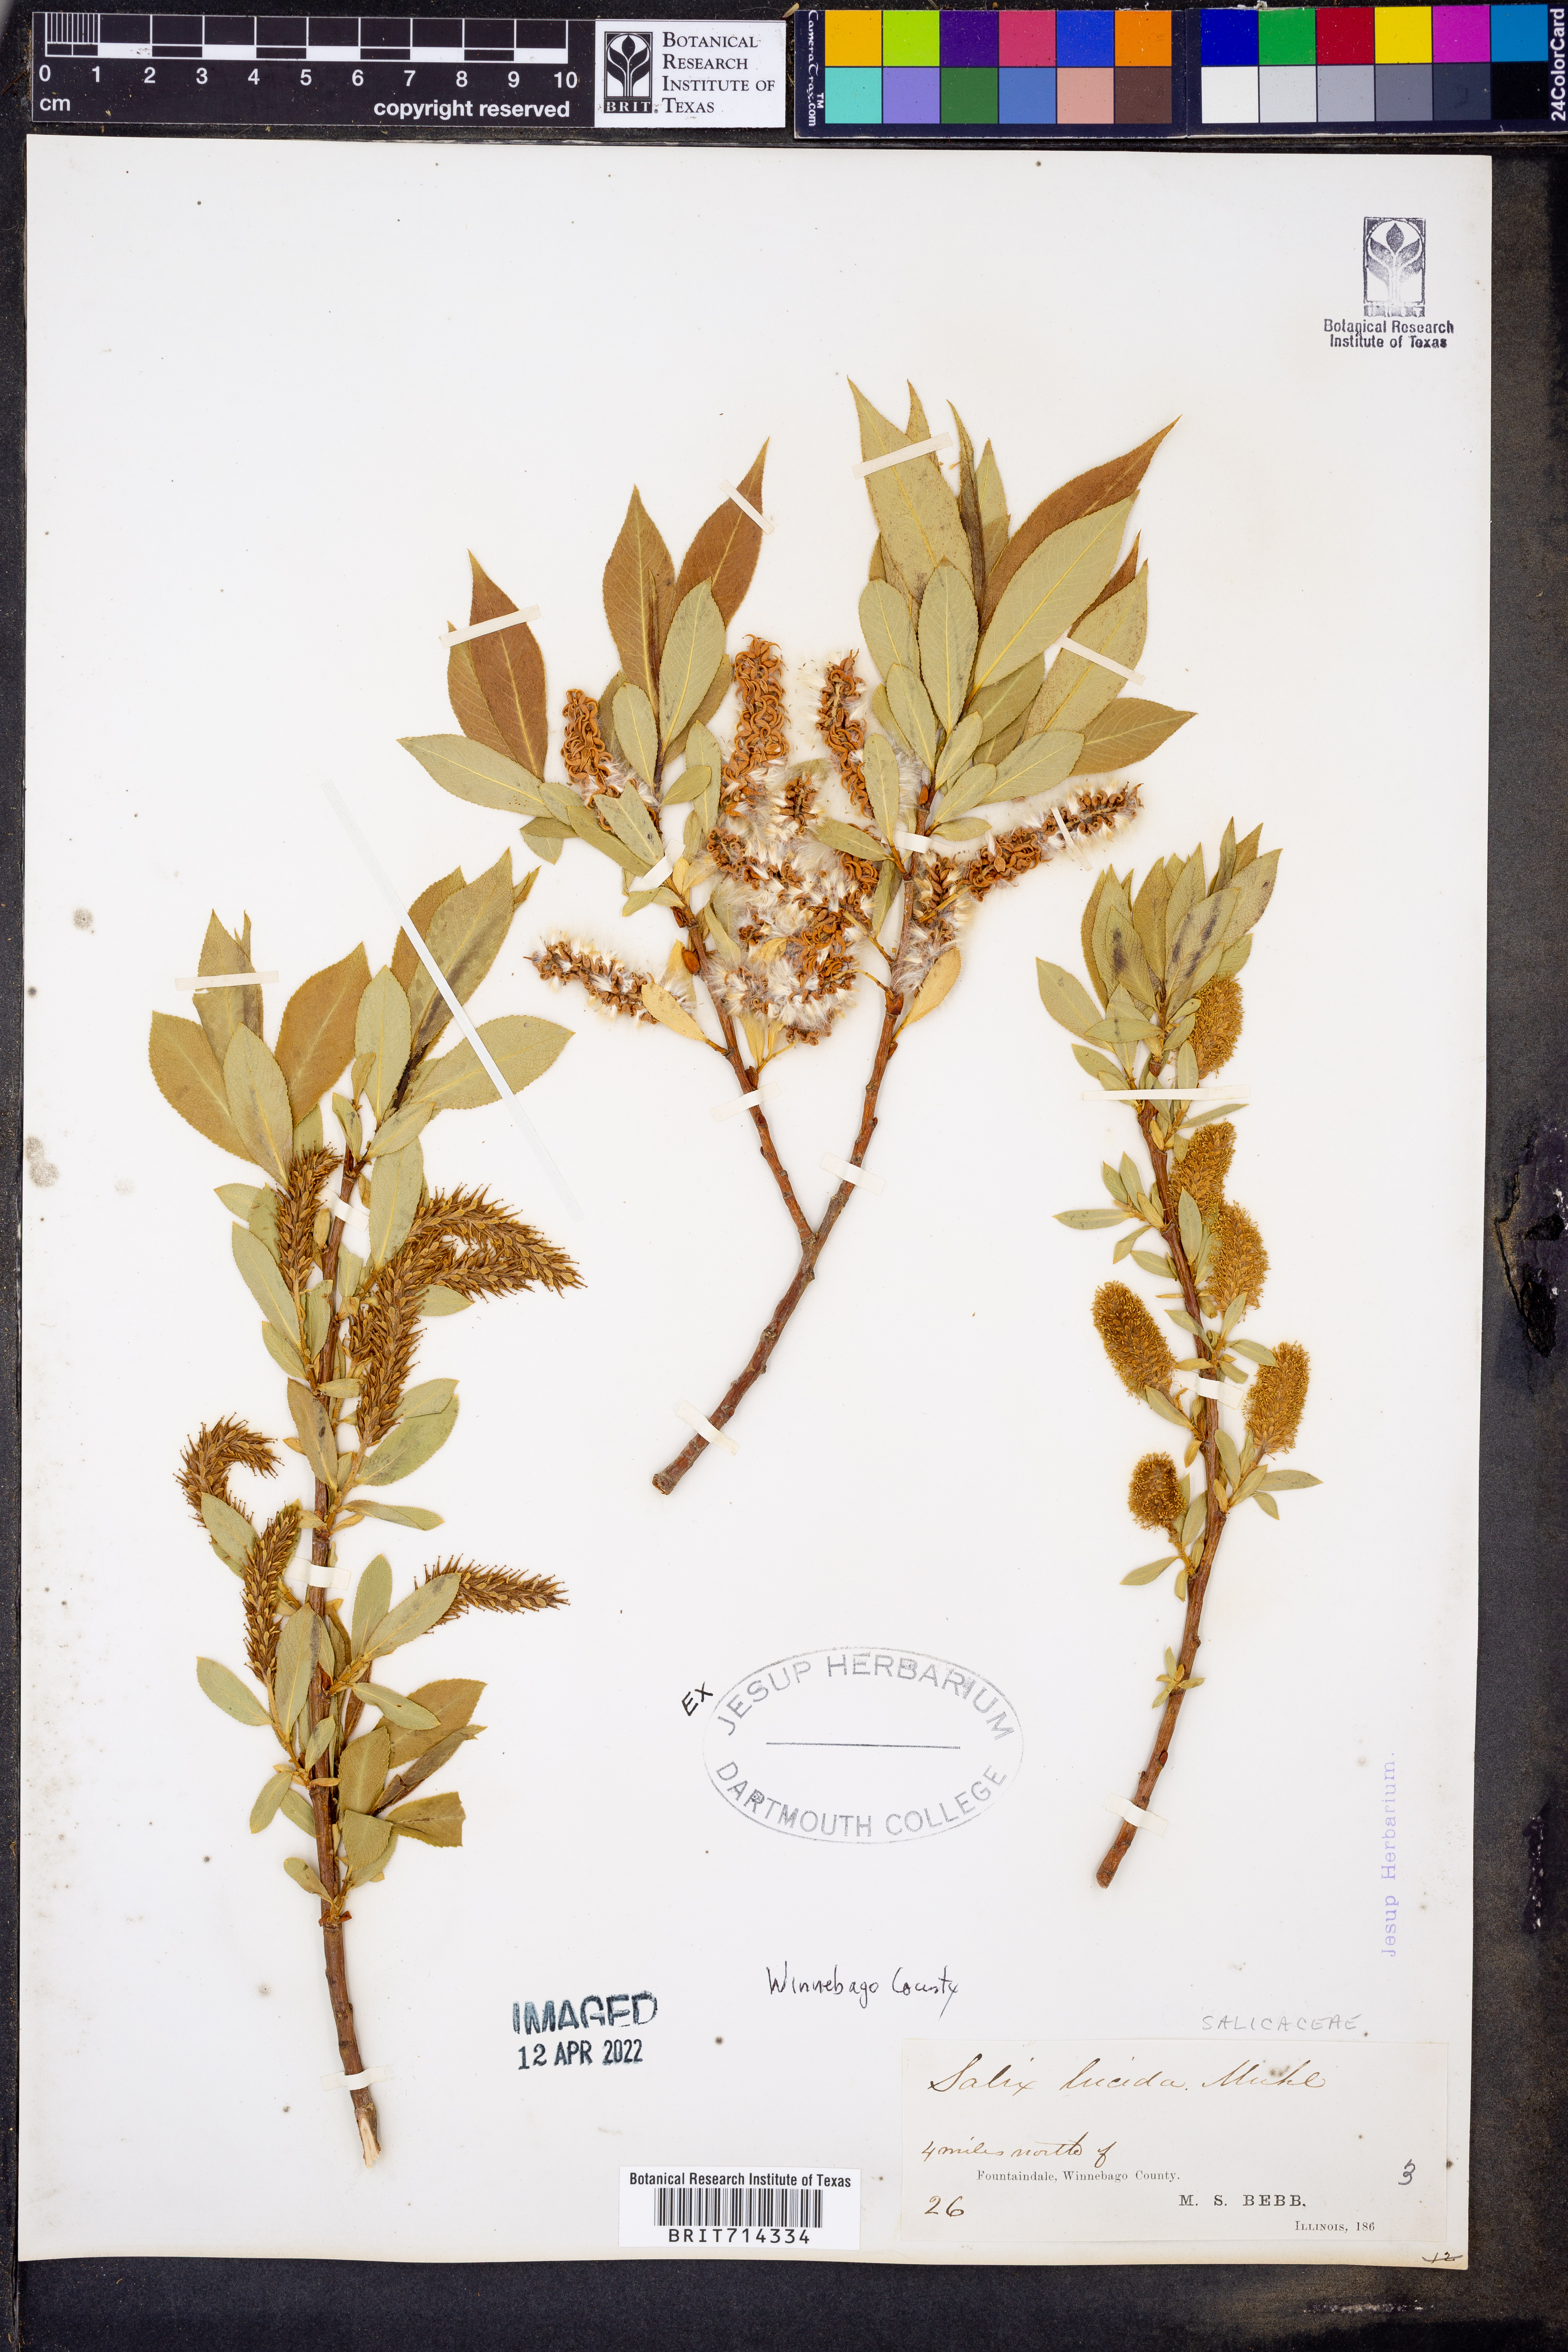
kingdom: Plantae
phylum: Tracheophyta
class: Magnoliopsida
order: Malpighiales
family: Salicaceae
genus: Salix
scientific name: Salix lucida
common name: Shining willow
